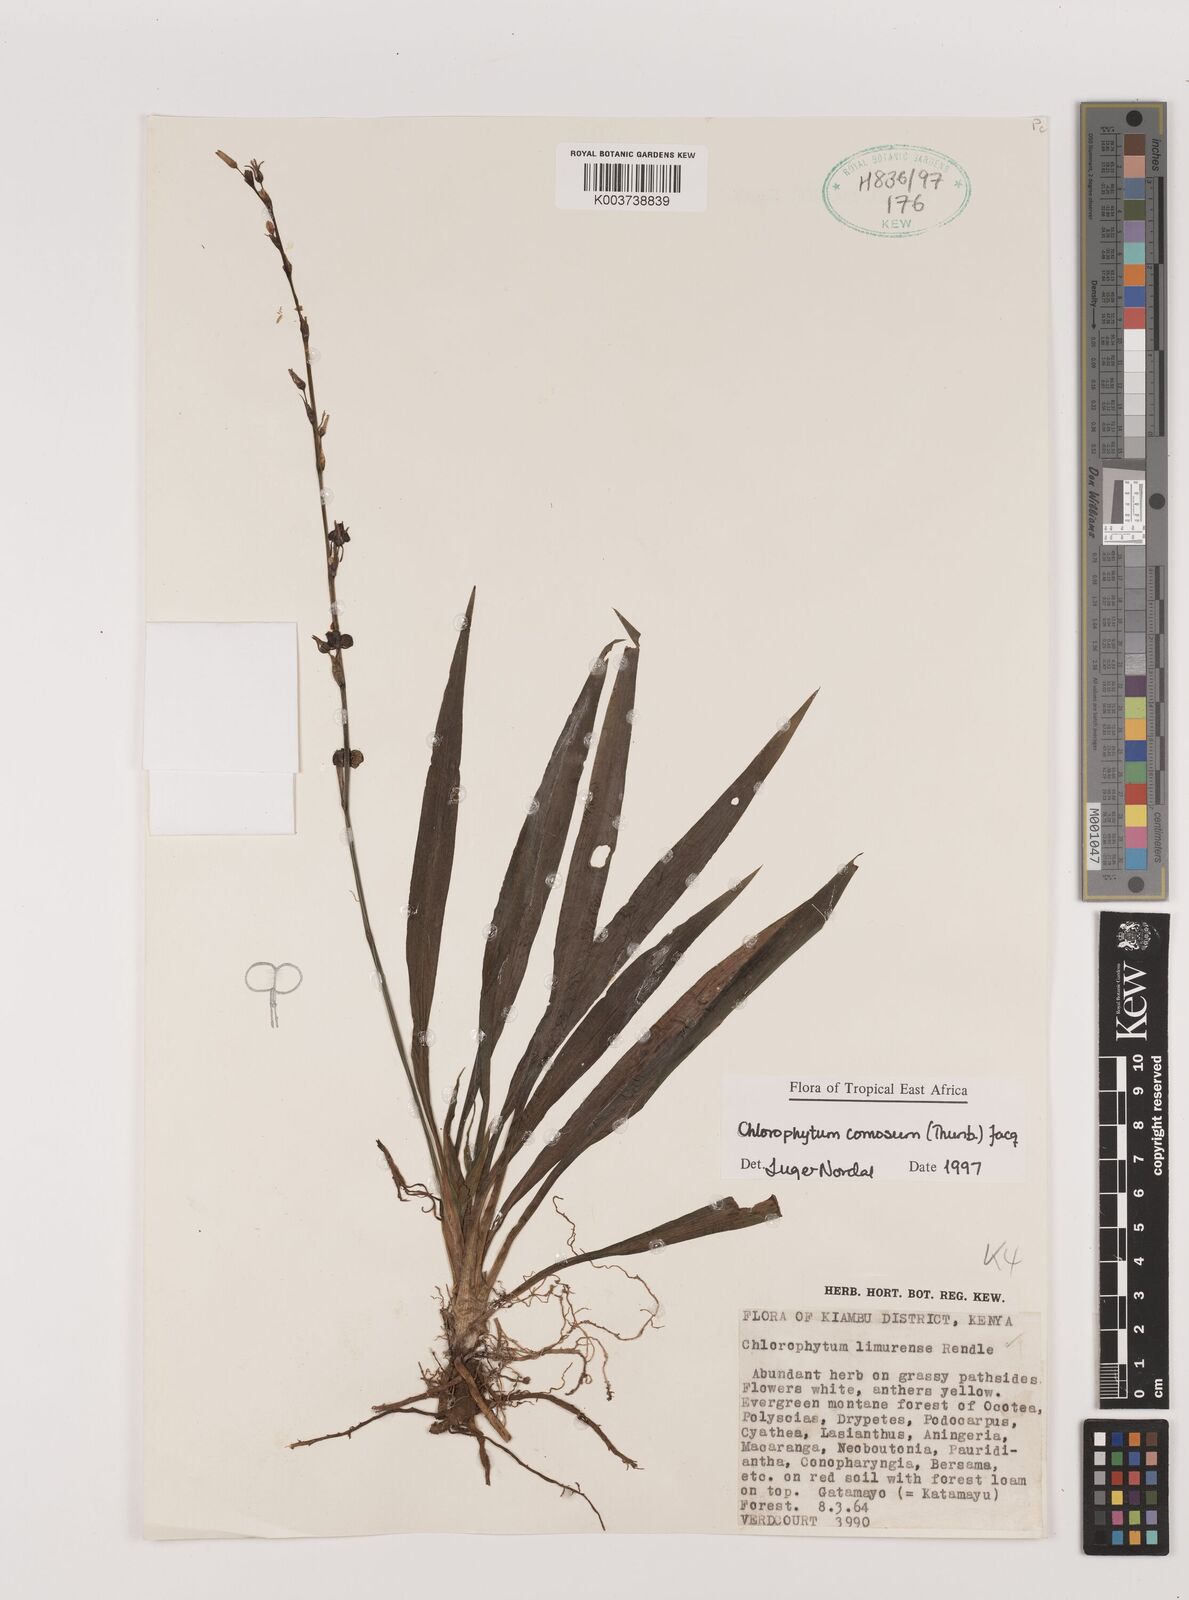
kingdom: Plantae
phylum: Tracheophyta
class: Liliopsida
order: Asparagales
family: Asparagaceae
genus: Chlorophytum
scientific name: Chlorophytum comosum
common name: Spider plant
